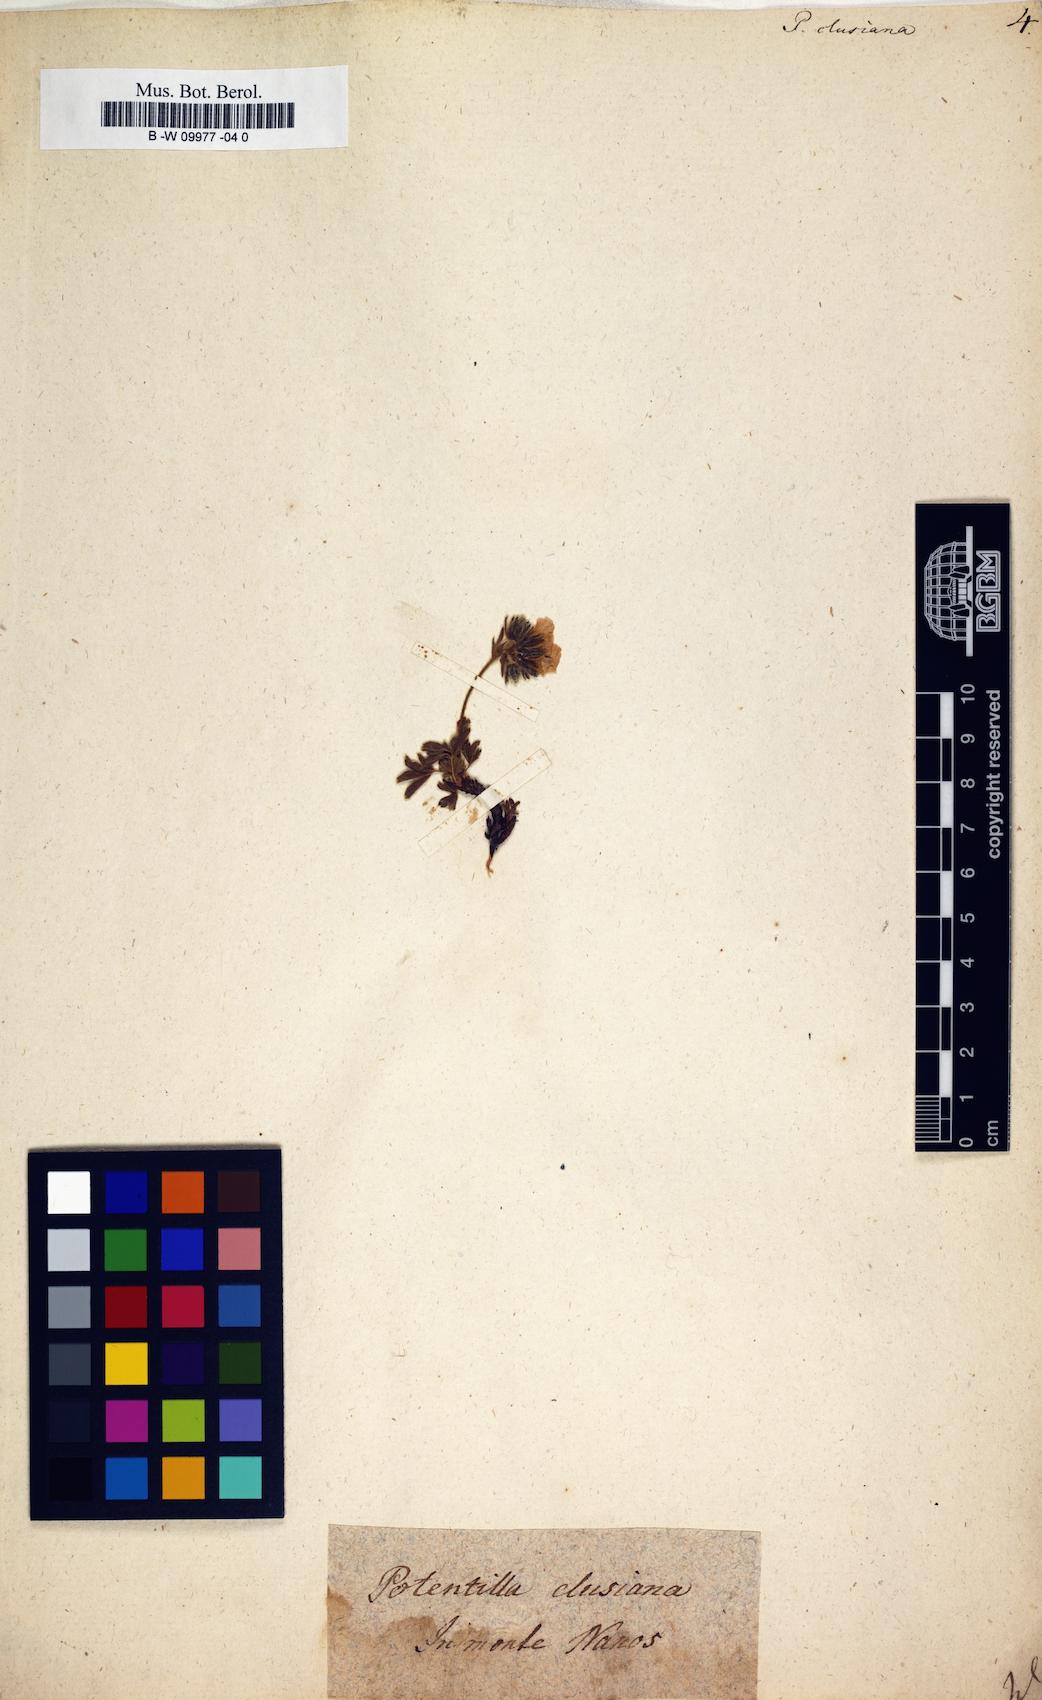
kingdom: Plantae
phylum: Tracheophyta
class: Magnoliopsida
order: Rosales
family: Rosaceae
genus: Potentilla
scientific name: Potentilla clusiana
